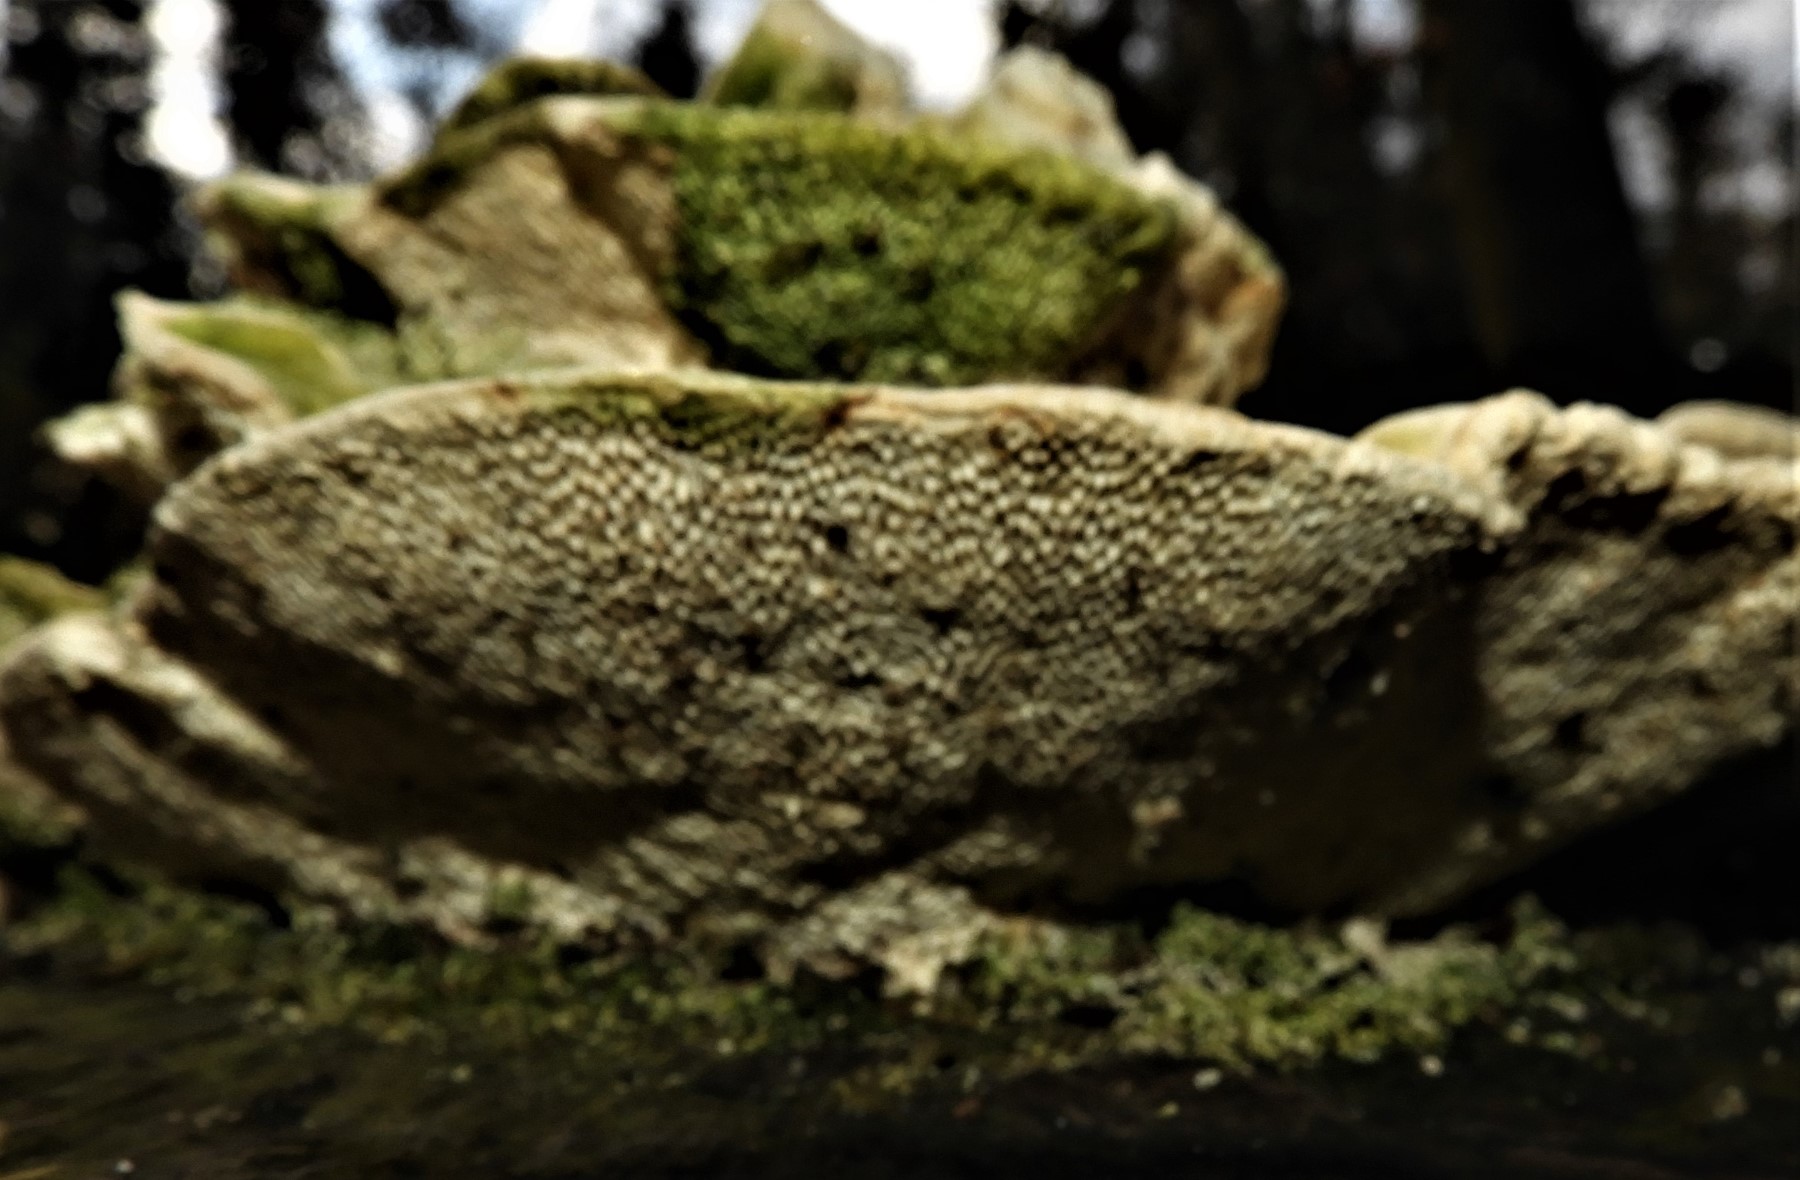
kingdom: Fungi
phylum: Basidiomycota
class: Agaricomycetes
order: Polyporales
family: Polyporaceae
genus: Trametes
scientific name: Trametes gibbosa
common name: puklet læderporesvamp
